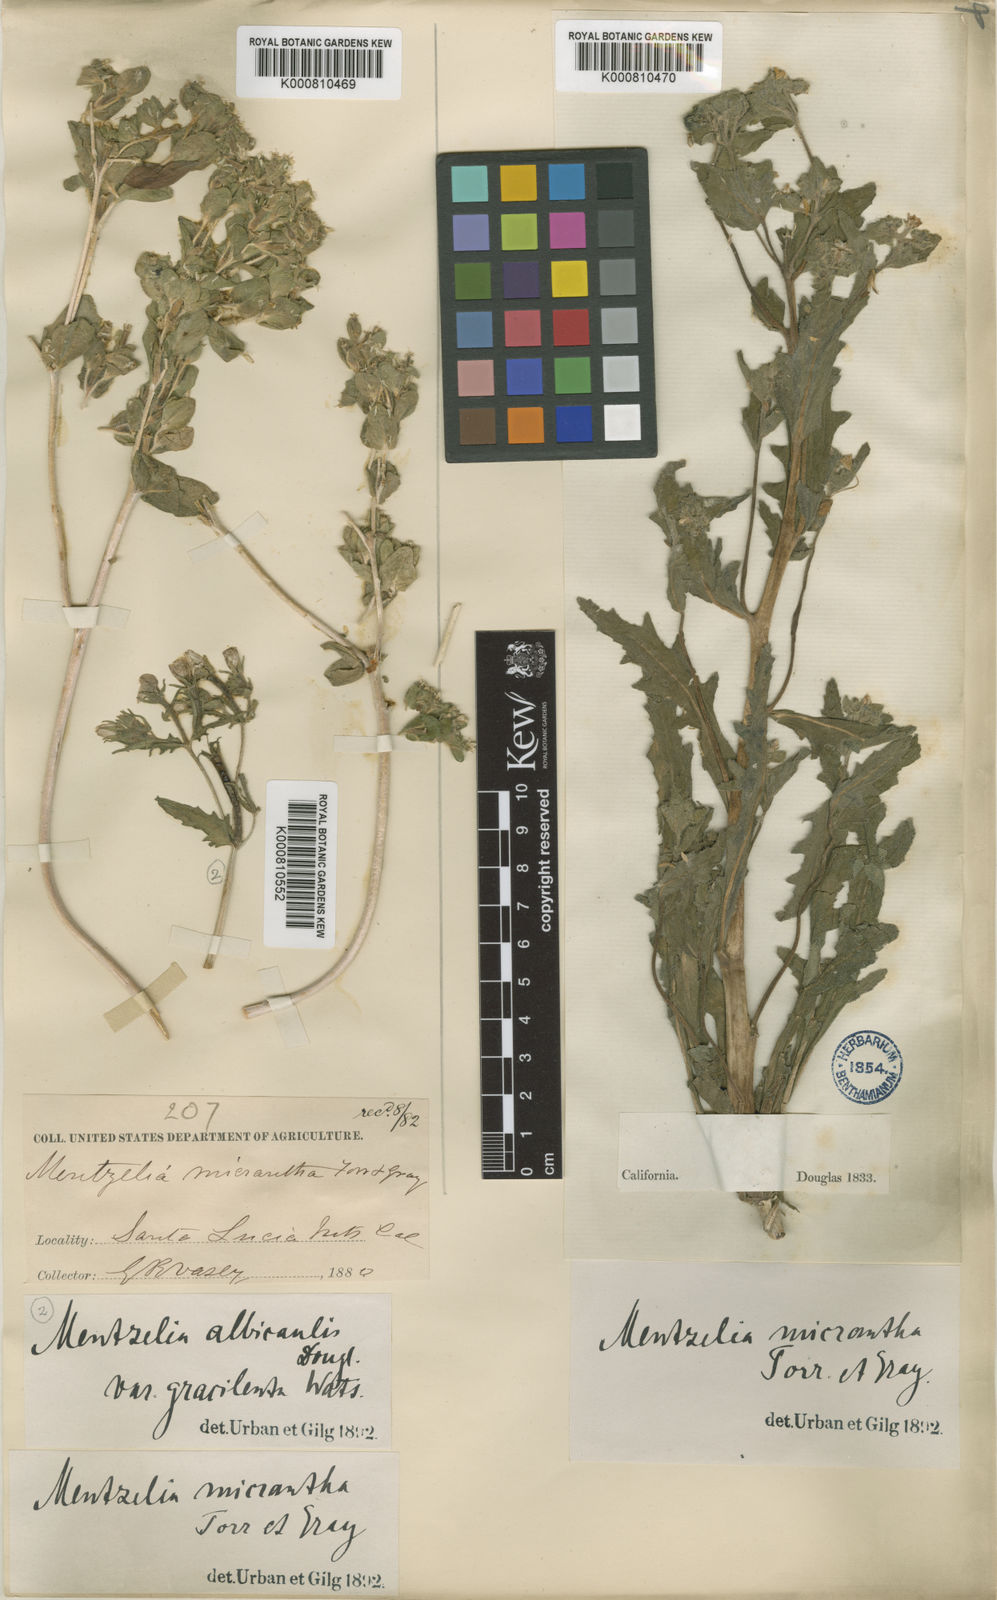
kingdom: Plantae
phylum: Tracheophyta
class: Magnoliopsida
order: Cornales
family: Loasaceae
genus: Mentzelia
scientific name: Mentzelia micrantha
